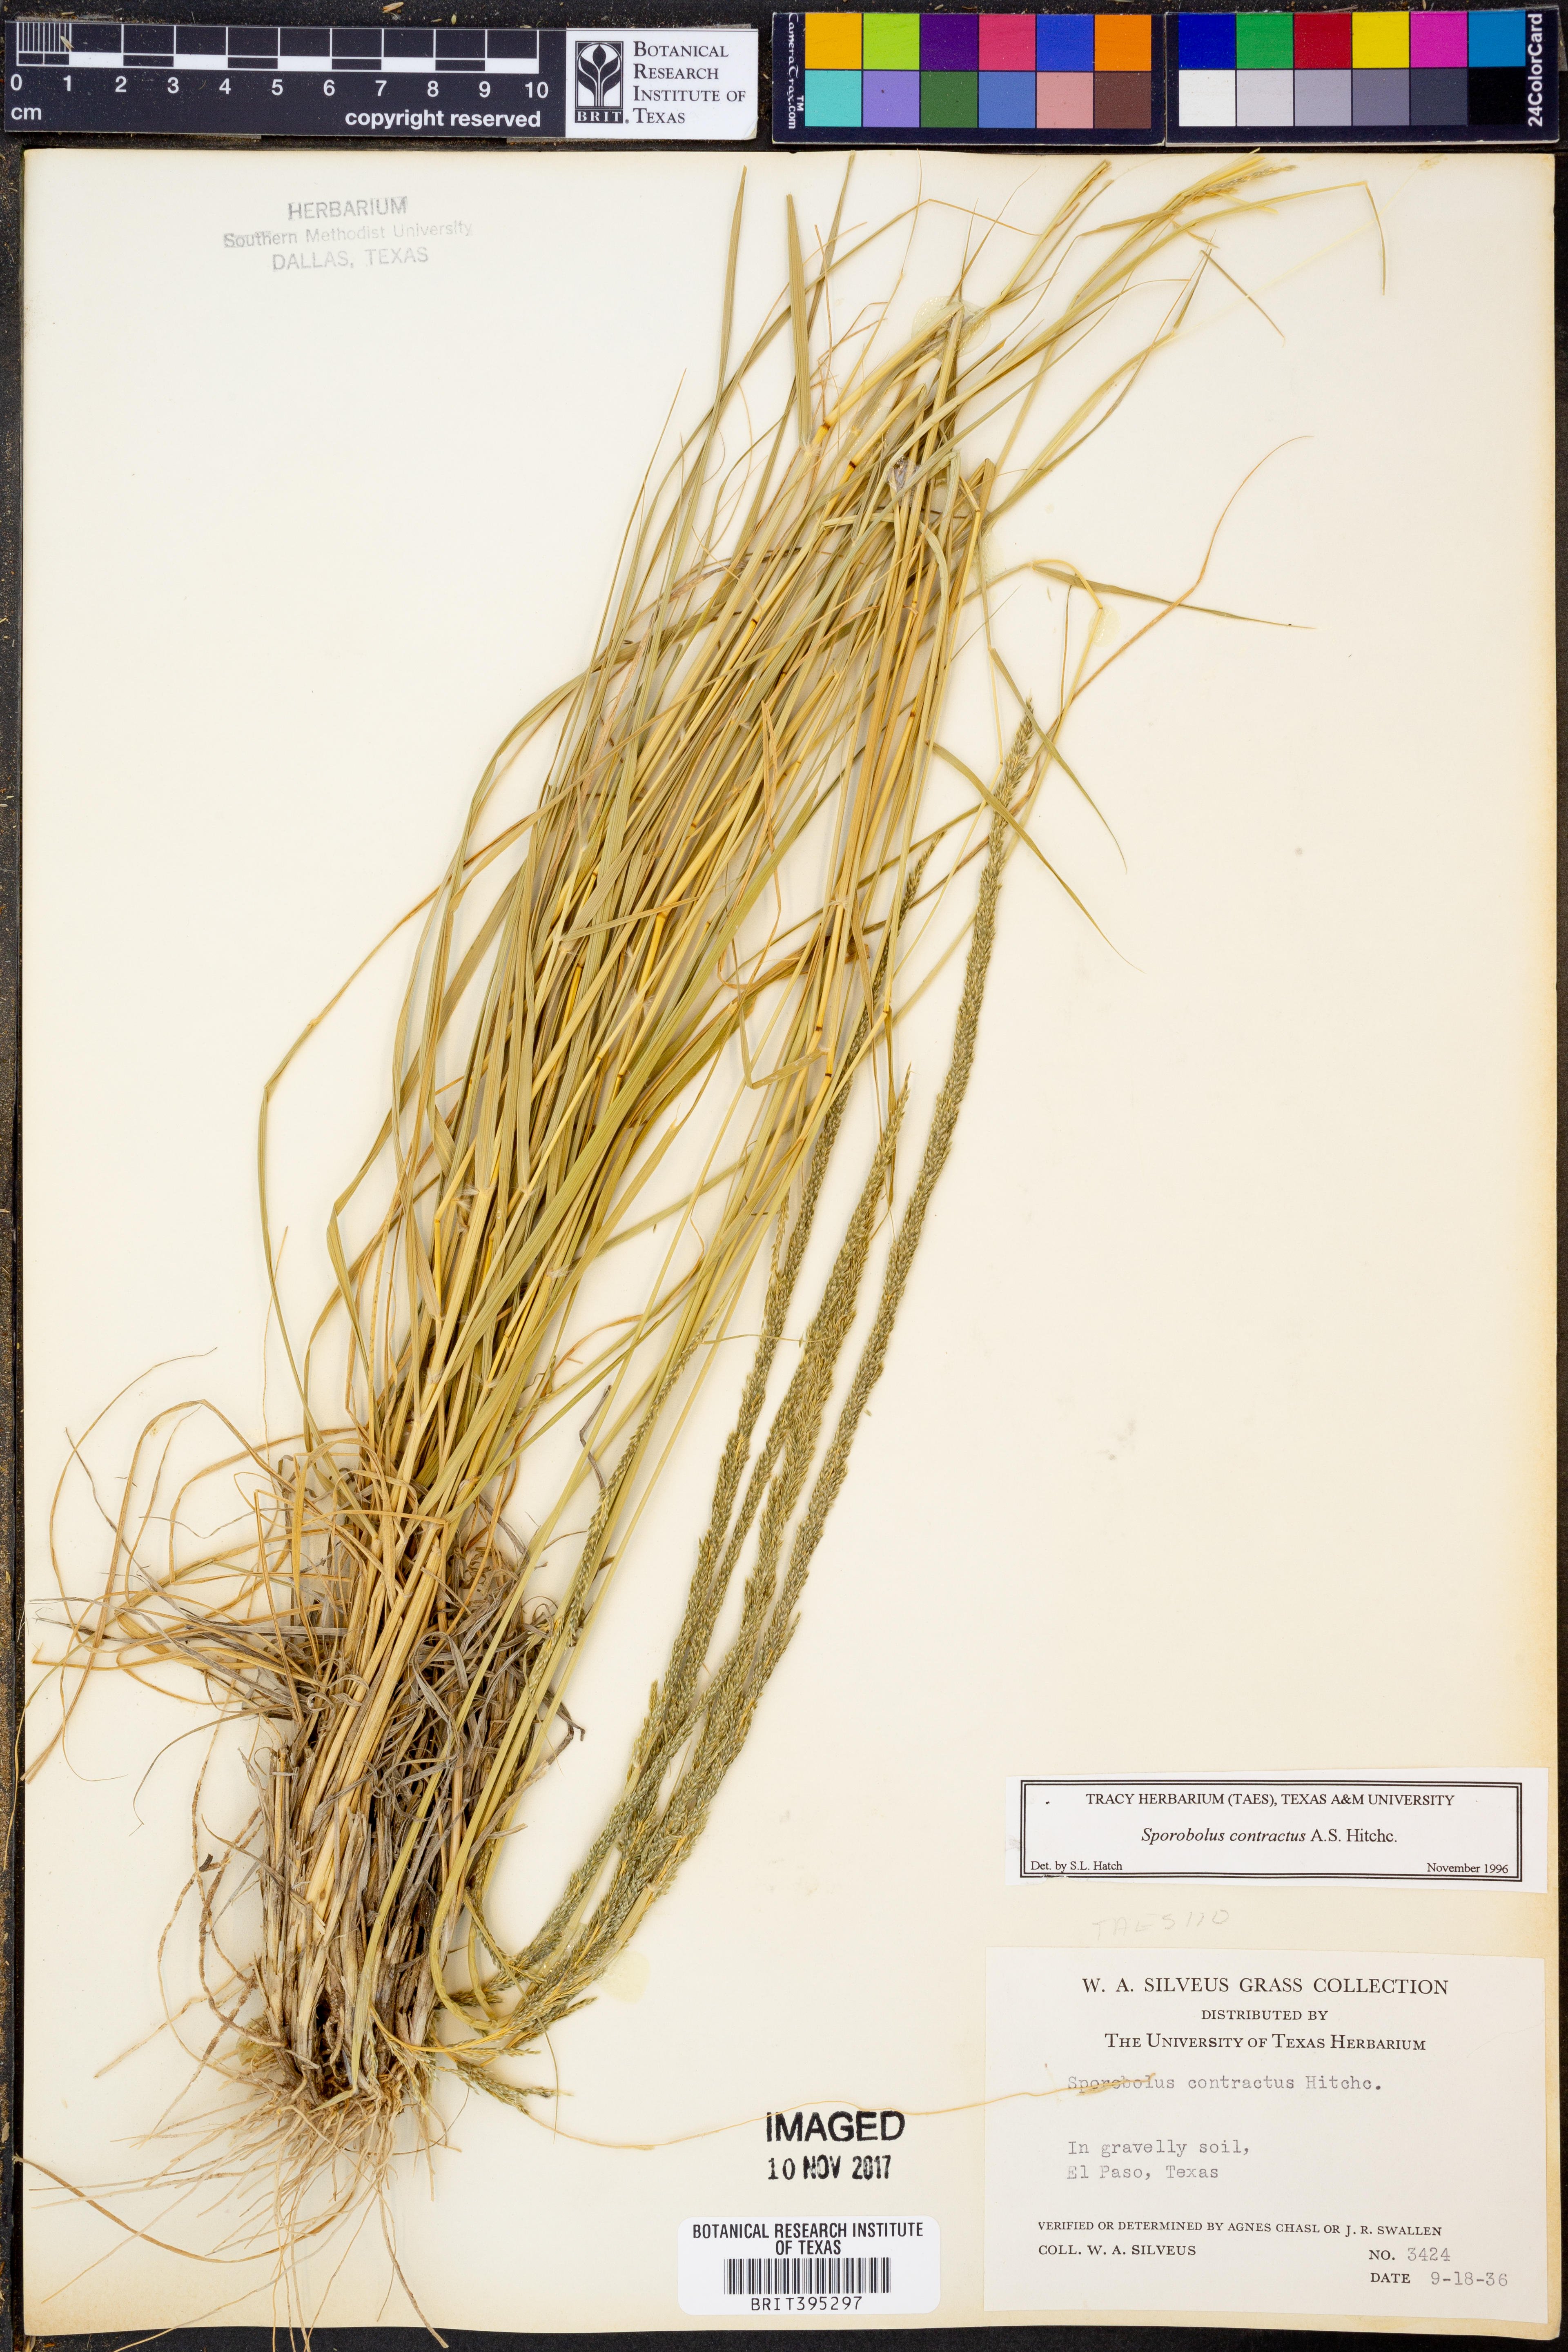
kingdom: Plantae
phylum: Tracheophyta
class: Liliopsida
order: Poales
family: Poaceae
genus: Sporobolus
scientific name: Sporobolus contractus
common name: Spike dropseed
